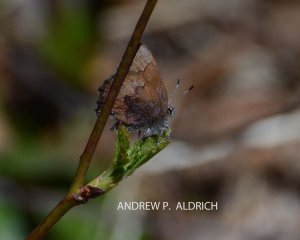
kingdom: Animalia
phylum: Arthropoda
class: Insecta
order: Lepidoptera
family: Lycaenidae
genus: Incisalia
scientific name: Incisalia irioides
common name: Brown Elfin
